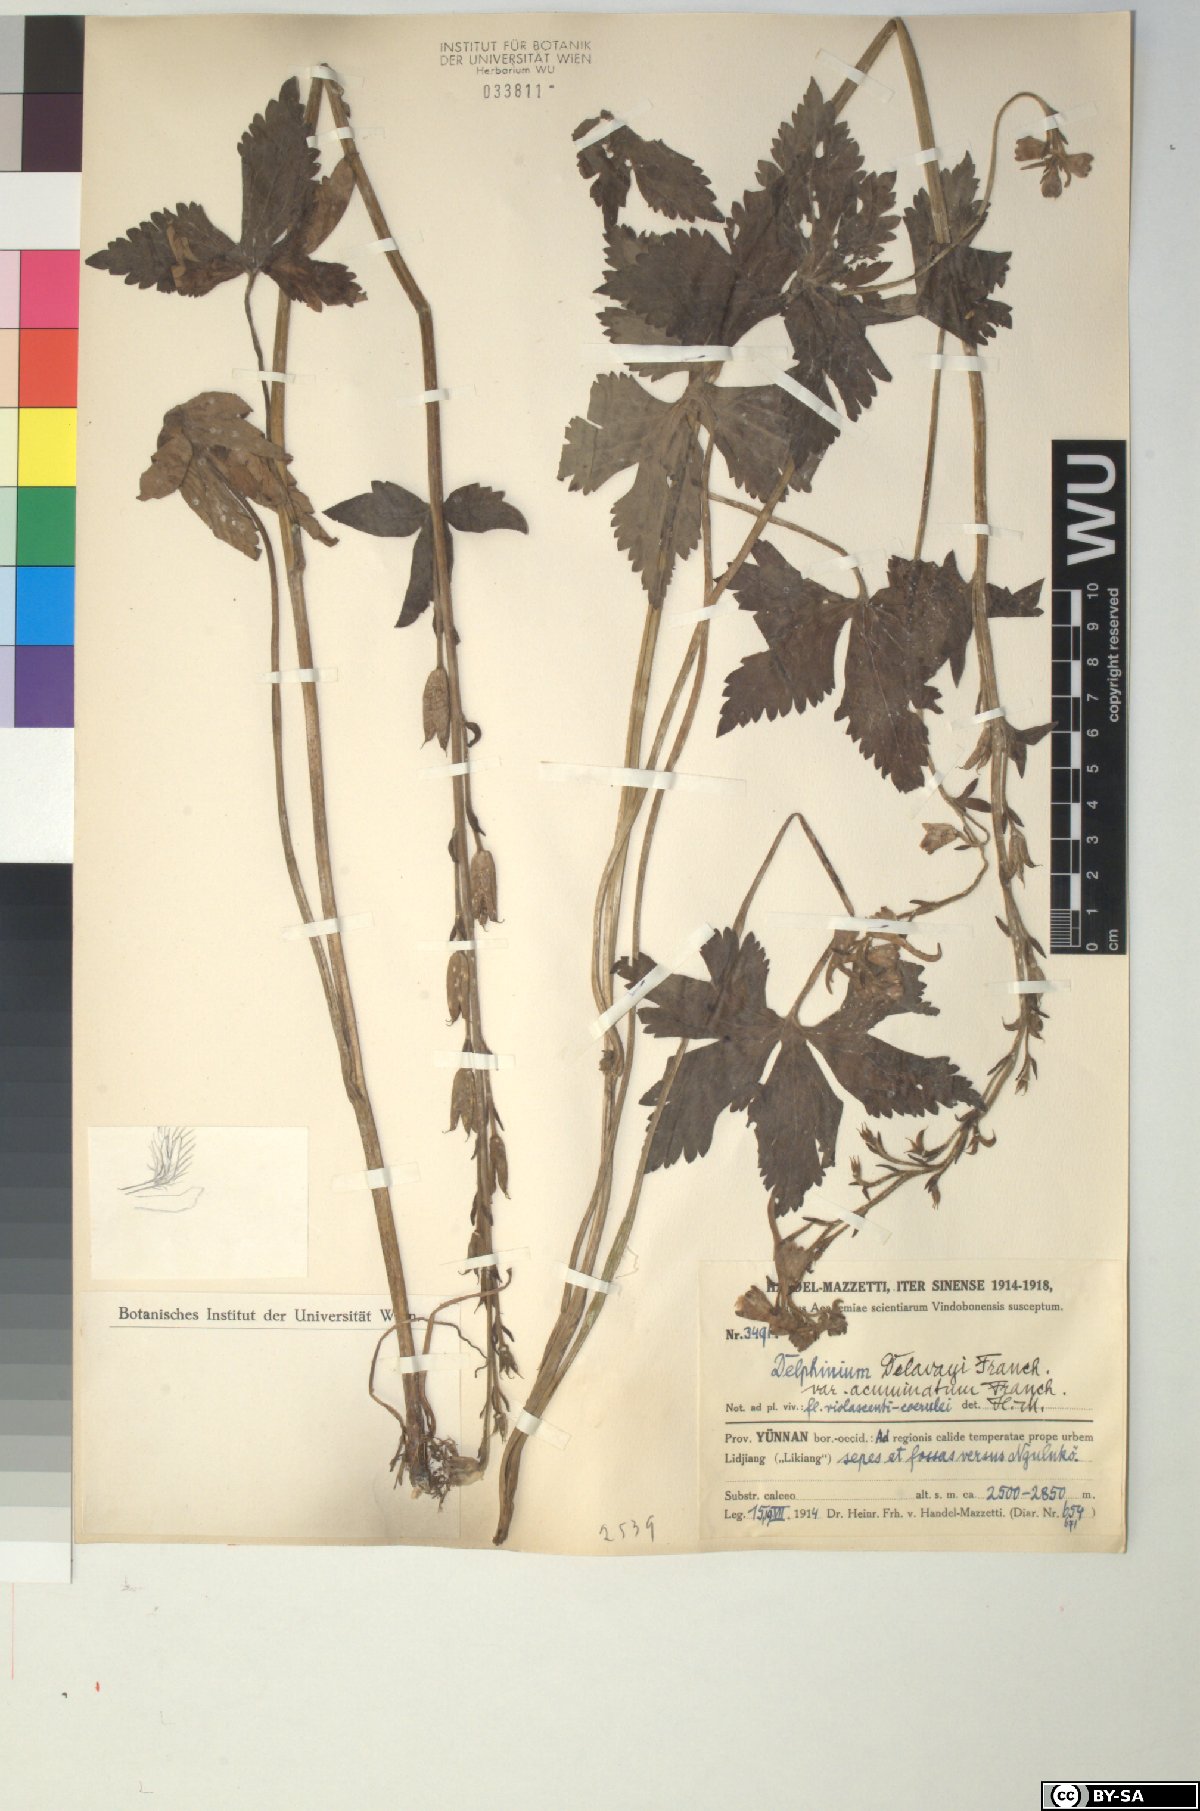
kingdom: Plantae
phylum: Tracheophyta
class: Magnoliopsida
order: Ranunculales
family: Ranunculaceae
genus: Delphinium
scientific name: Delphinium delavayi
